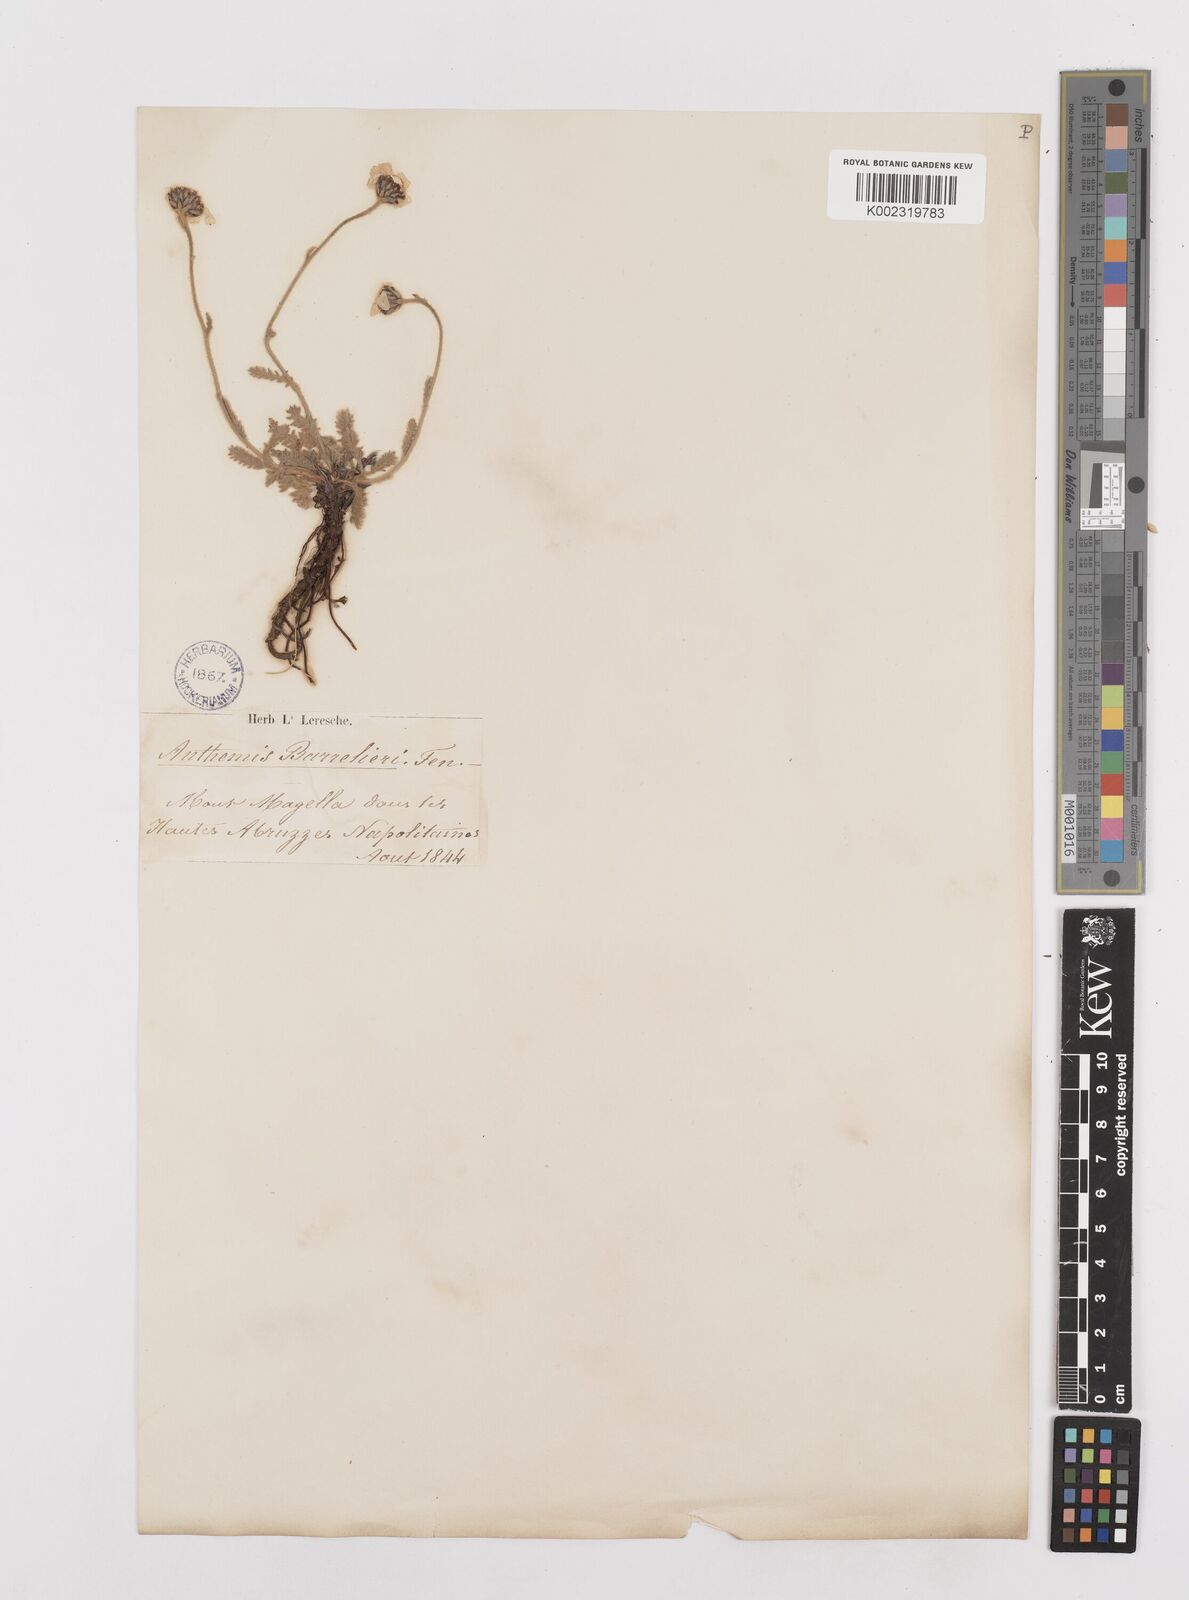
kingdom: Plantae
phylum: Tracheophyta
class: Magnoliopsida
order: Asterales
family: Asteraceae
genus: Achillea
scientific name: Achillea barrelieri
